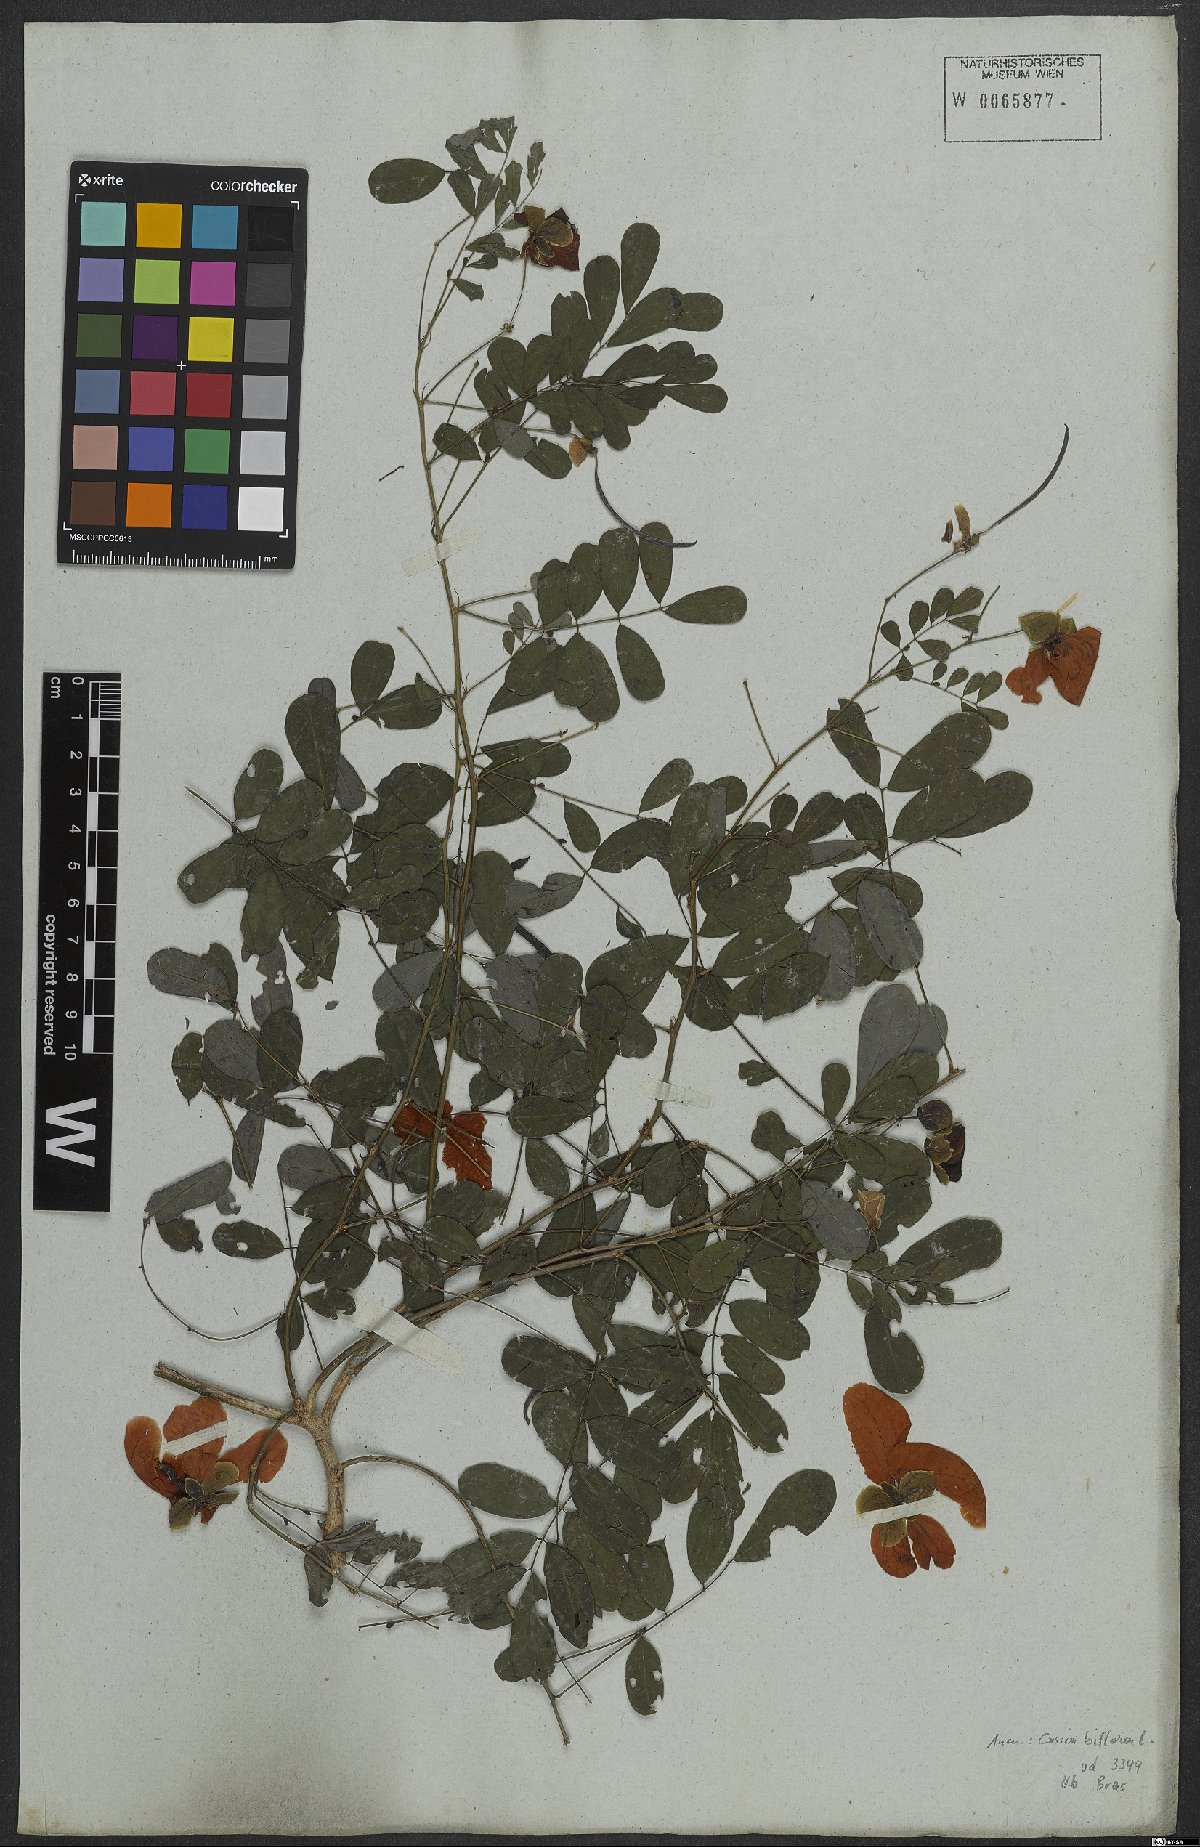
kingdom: Plantae
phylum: Tracheophyta
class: Magnoliopsida
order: Fabales
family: Fabaceae
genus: Senna
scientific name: Senna pallida
